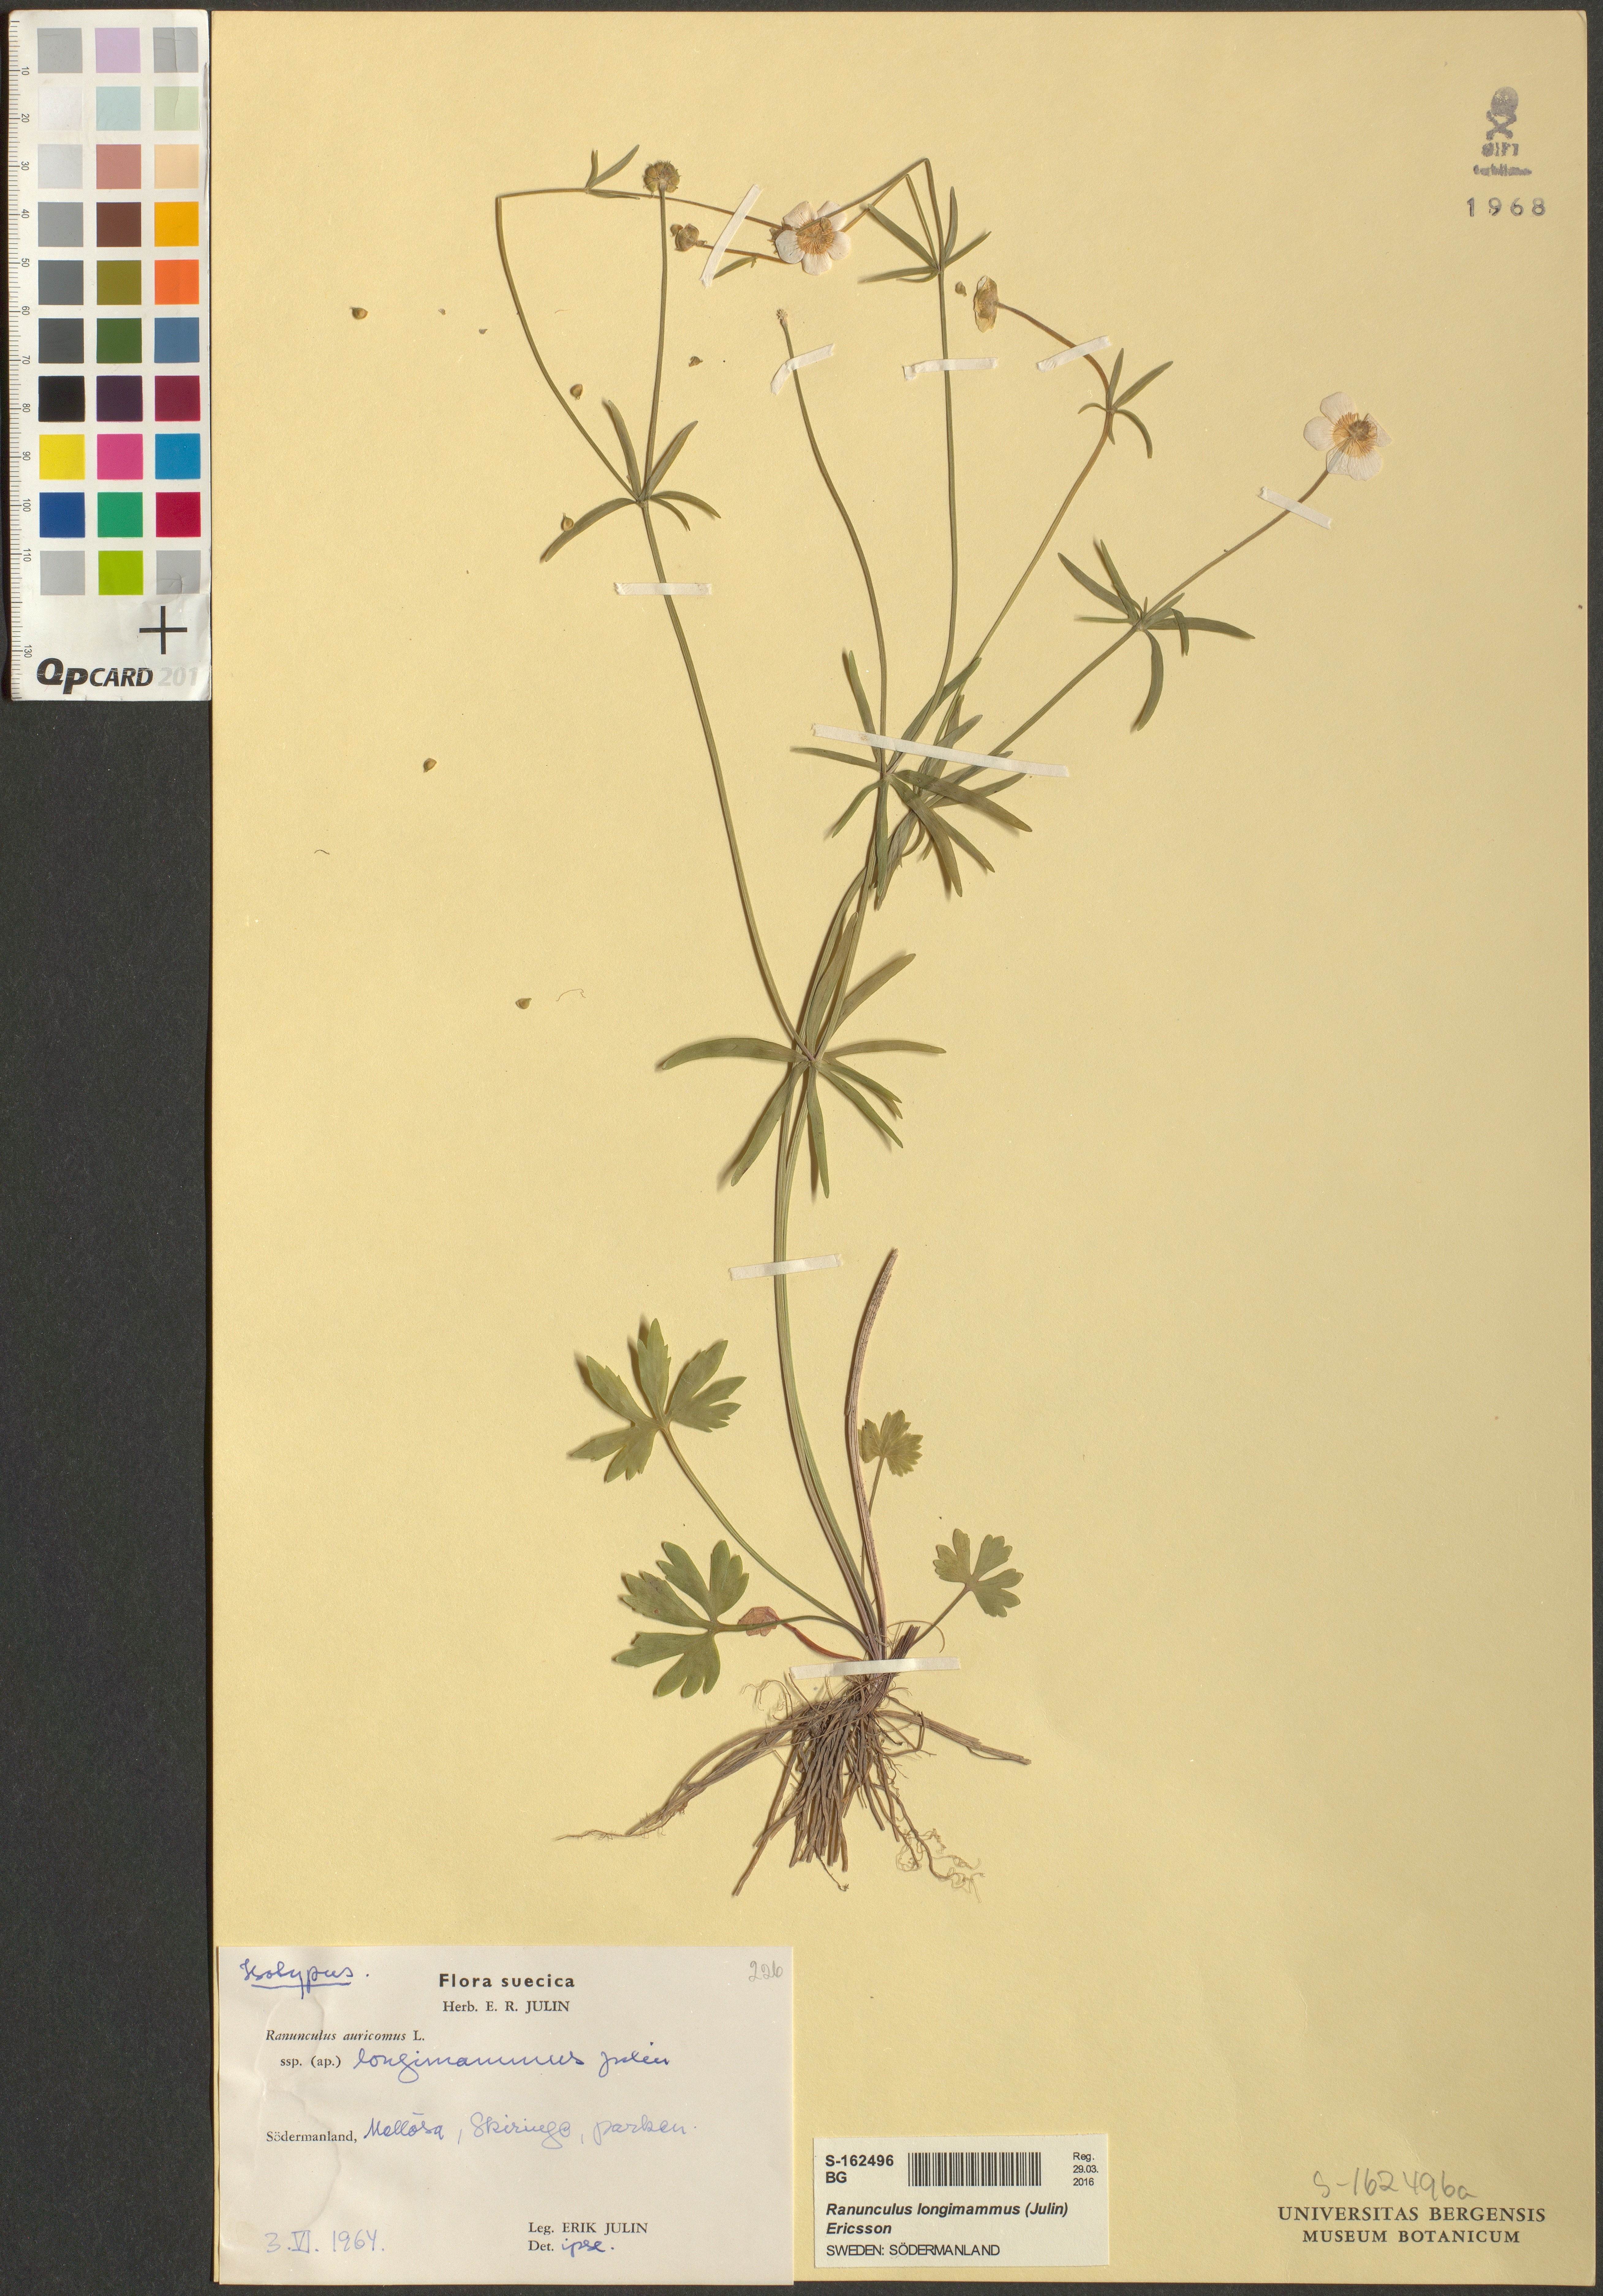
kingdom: Plantae
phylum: Tracheophyta
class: Magnoliopsida
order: Ranunculales
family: Ranunculaceae
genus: Ranunculus
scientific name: Ranunculus longimammus
